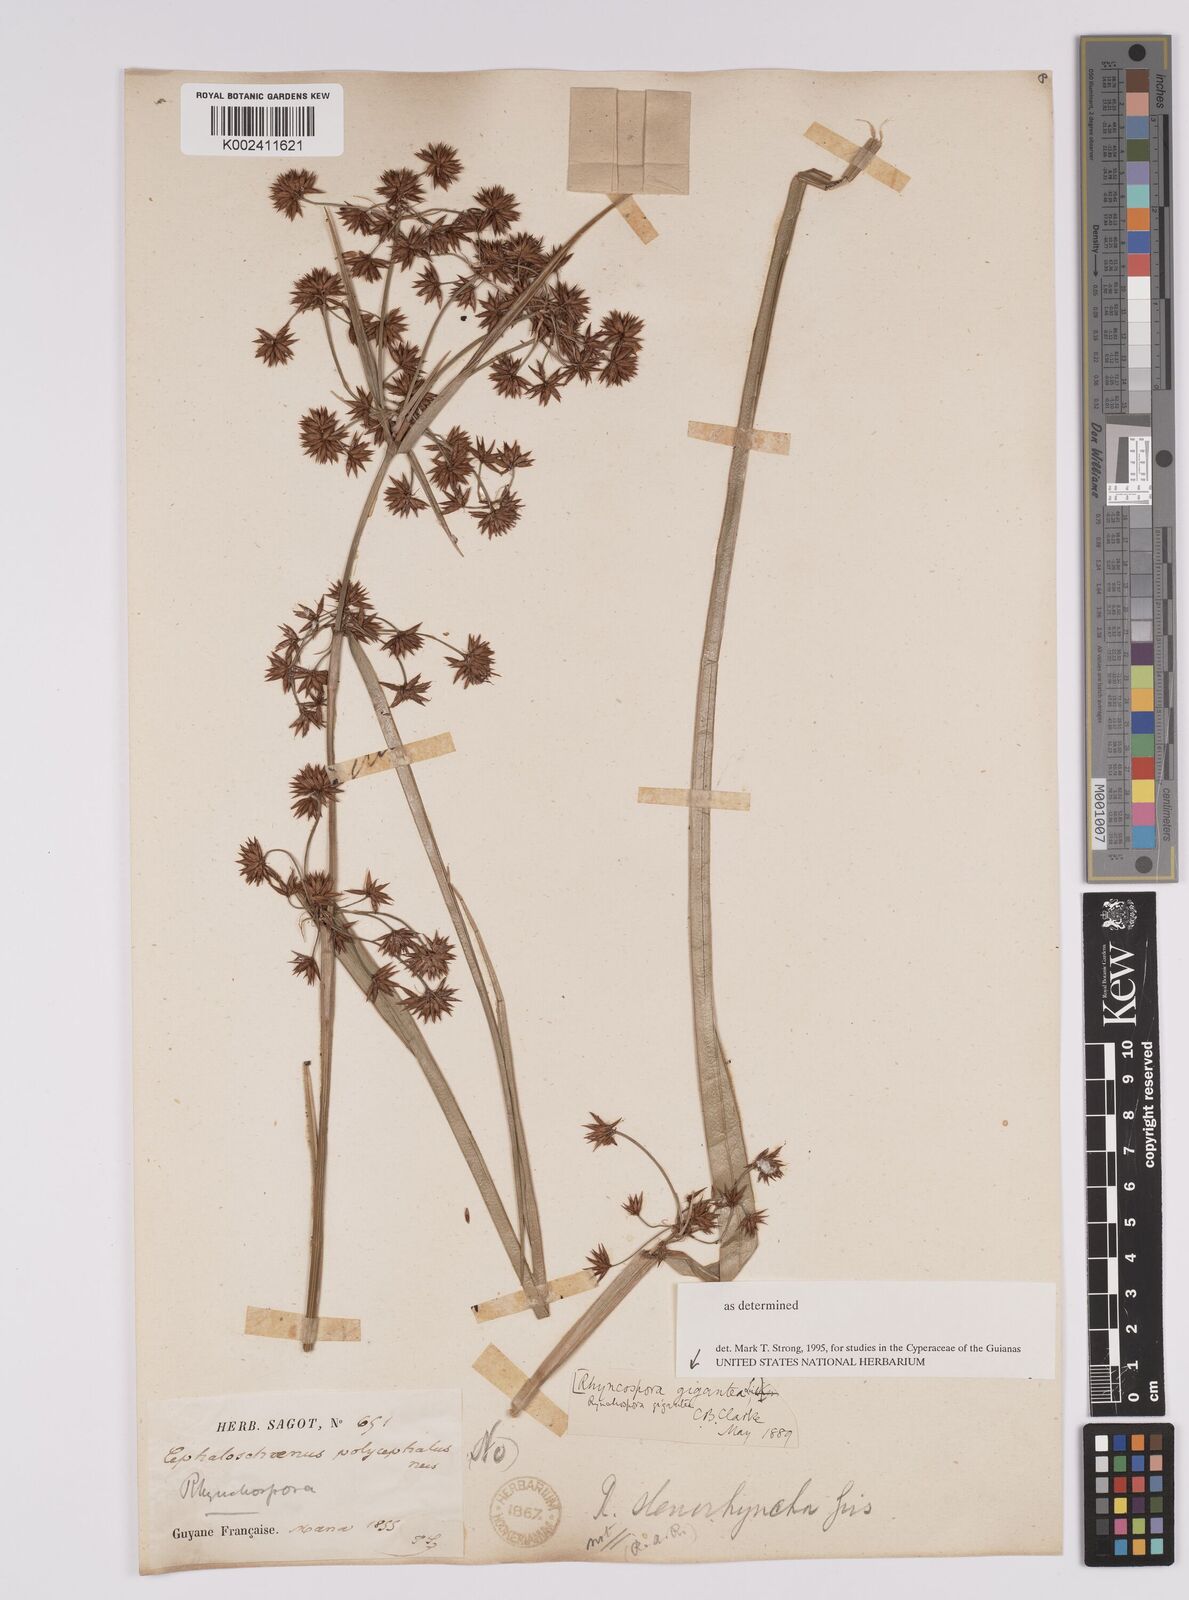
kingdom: Plantae
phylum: Tracheophyta
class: Liliopsida
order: Poales
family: Cyperaceae
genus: Rhynchospora
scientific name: Rhynchospora gigantea
